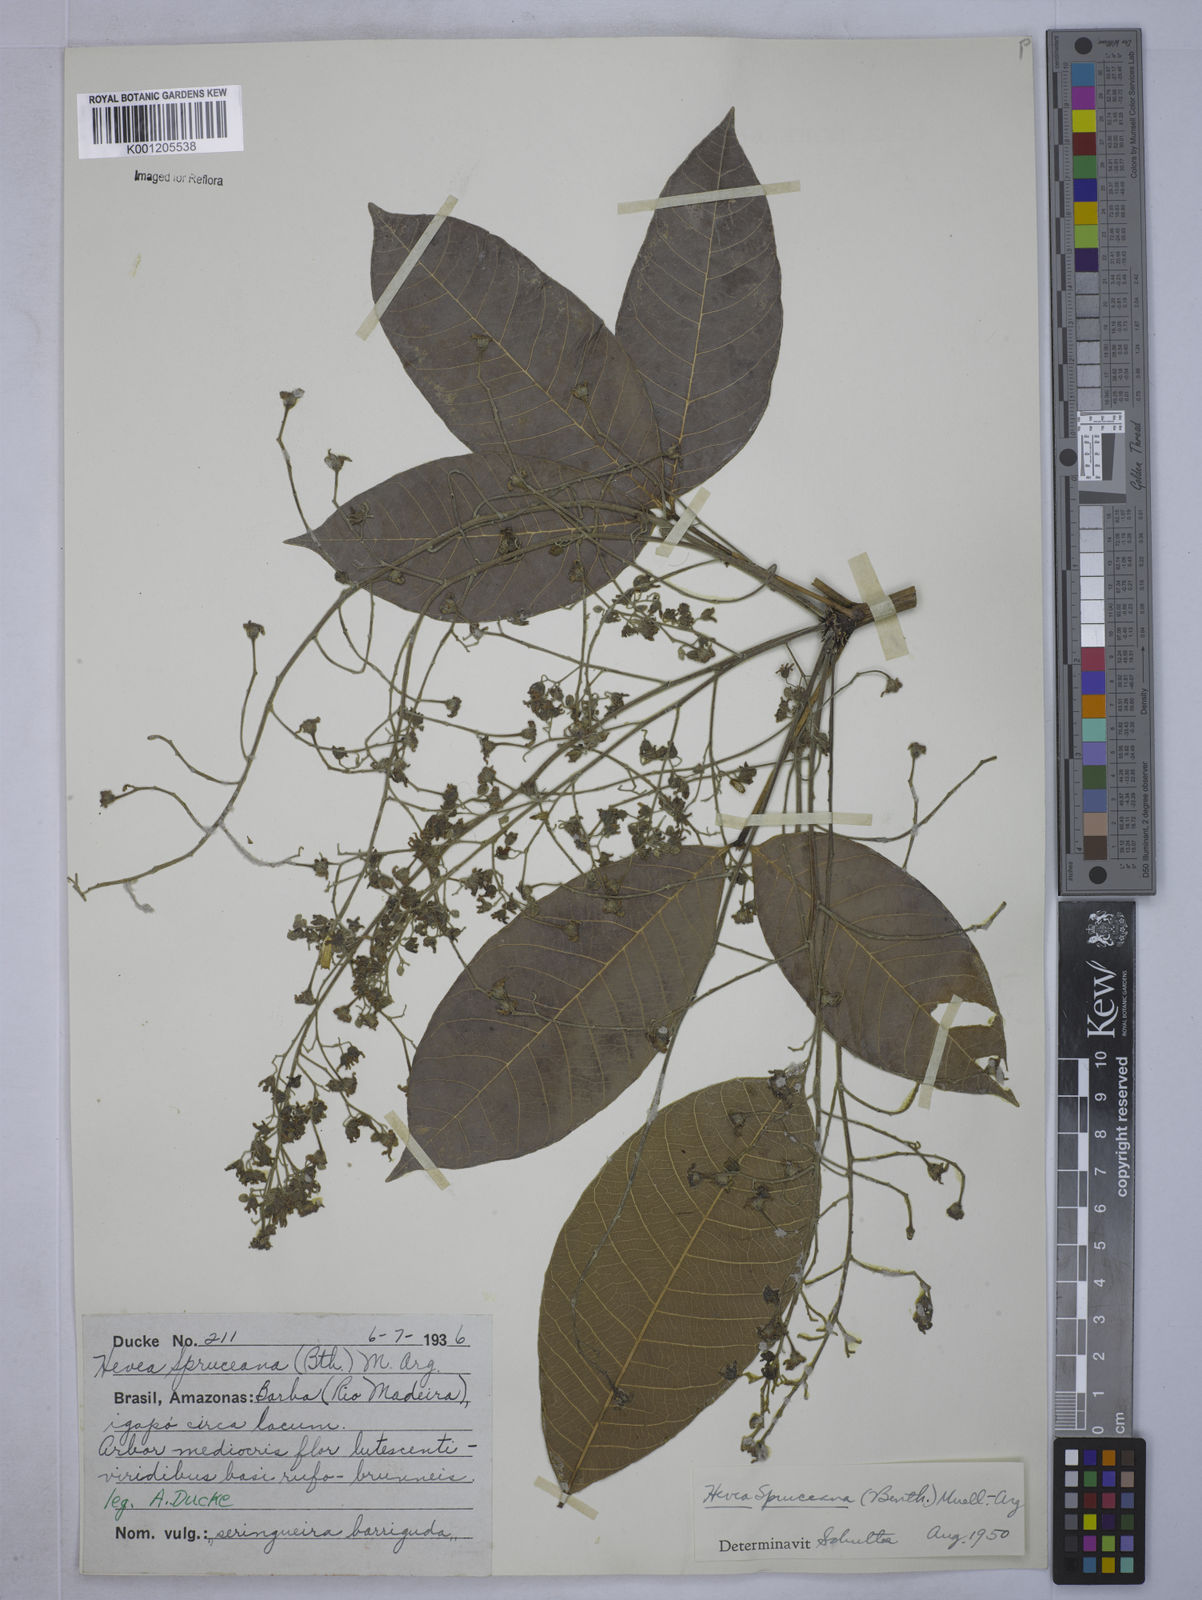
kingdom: Plantae
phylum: Tracheophyta
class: Magnoliopsida
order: Malpighiales
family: Euphorbiaceae
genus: Hevea
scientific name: Hevea
